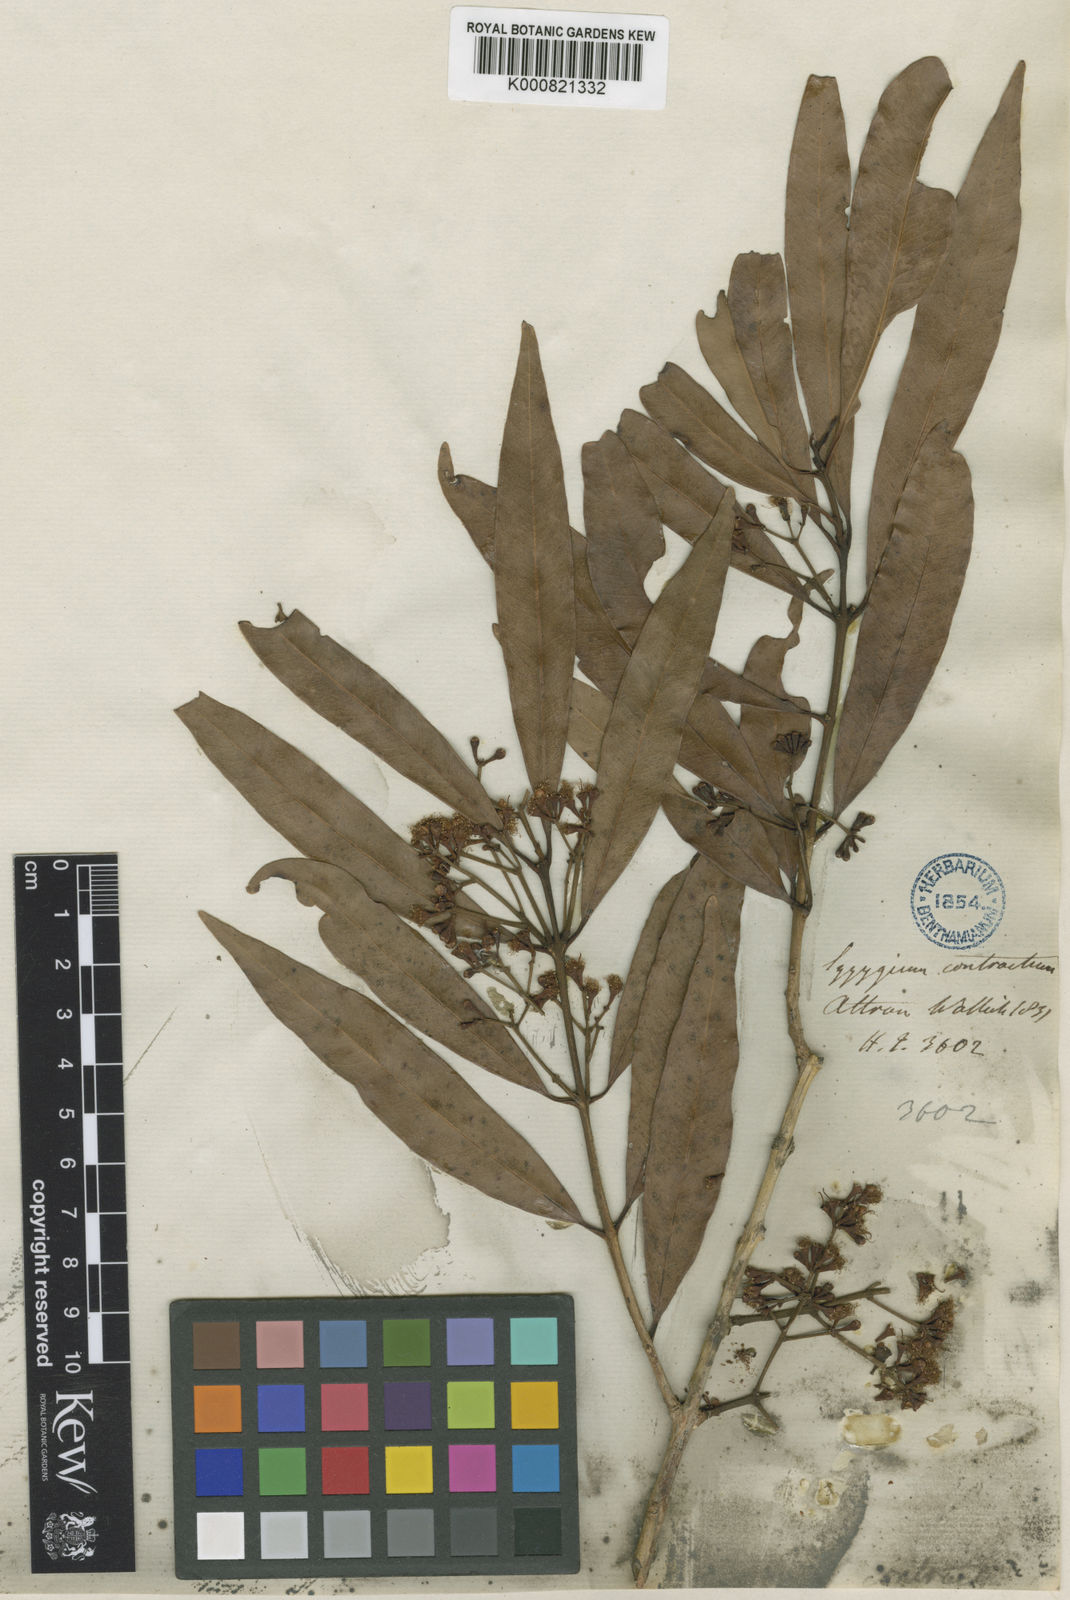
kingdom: Plantae
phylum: Tracheophyta
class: Magnoliopsida
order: Myrtales
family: Myrtaceae
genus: Syzygium
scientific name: Syzygium pellucidum
